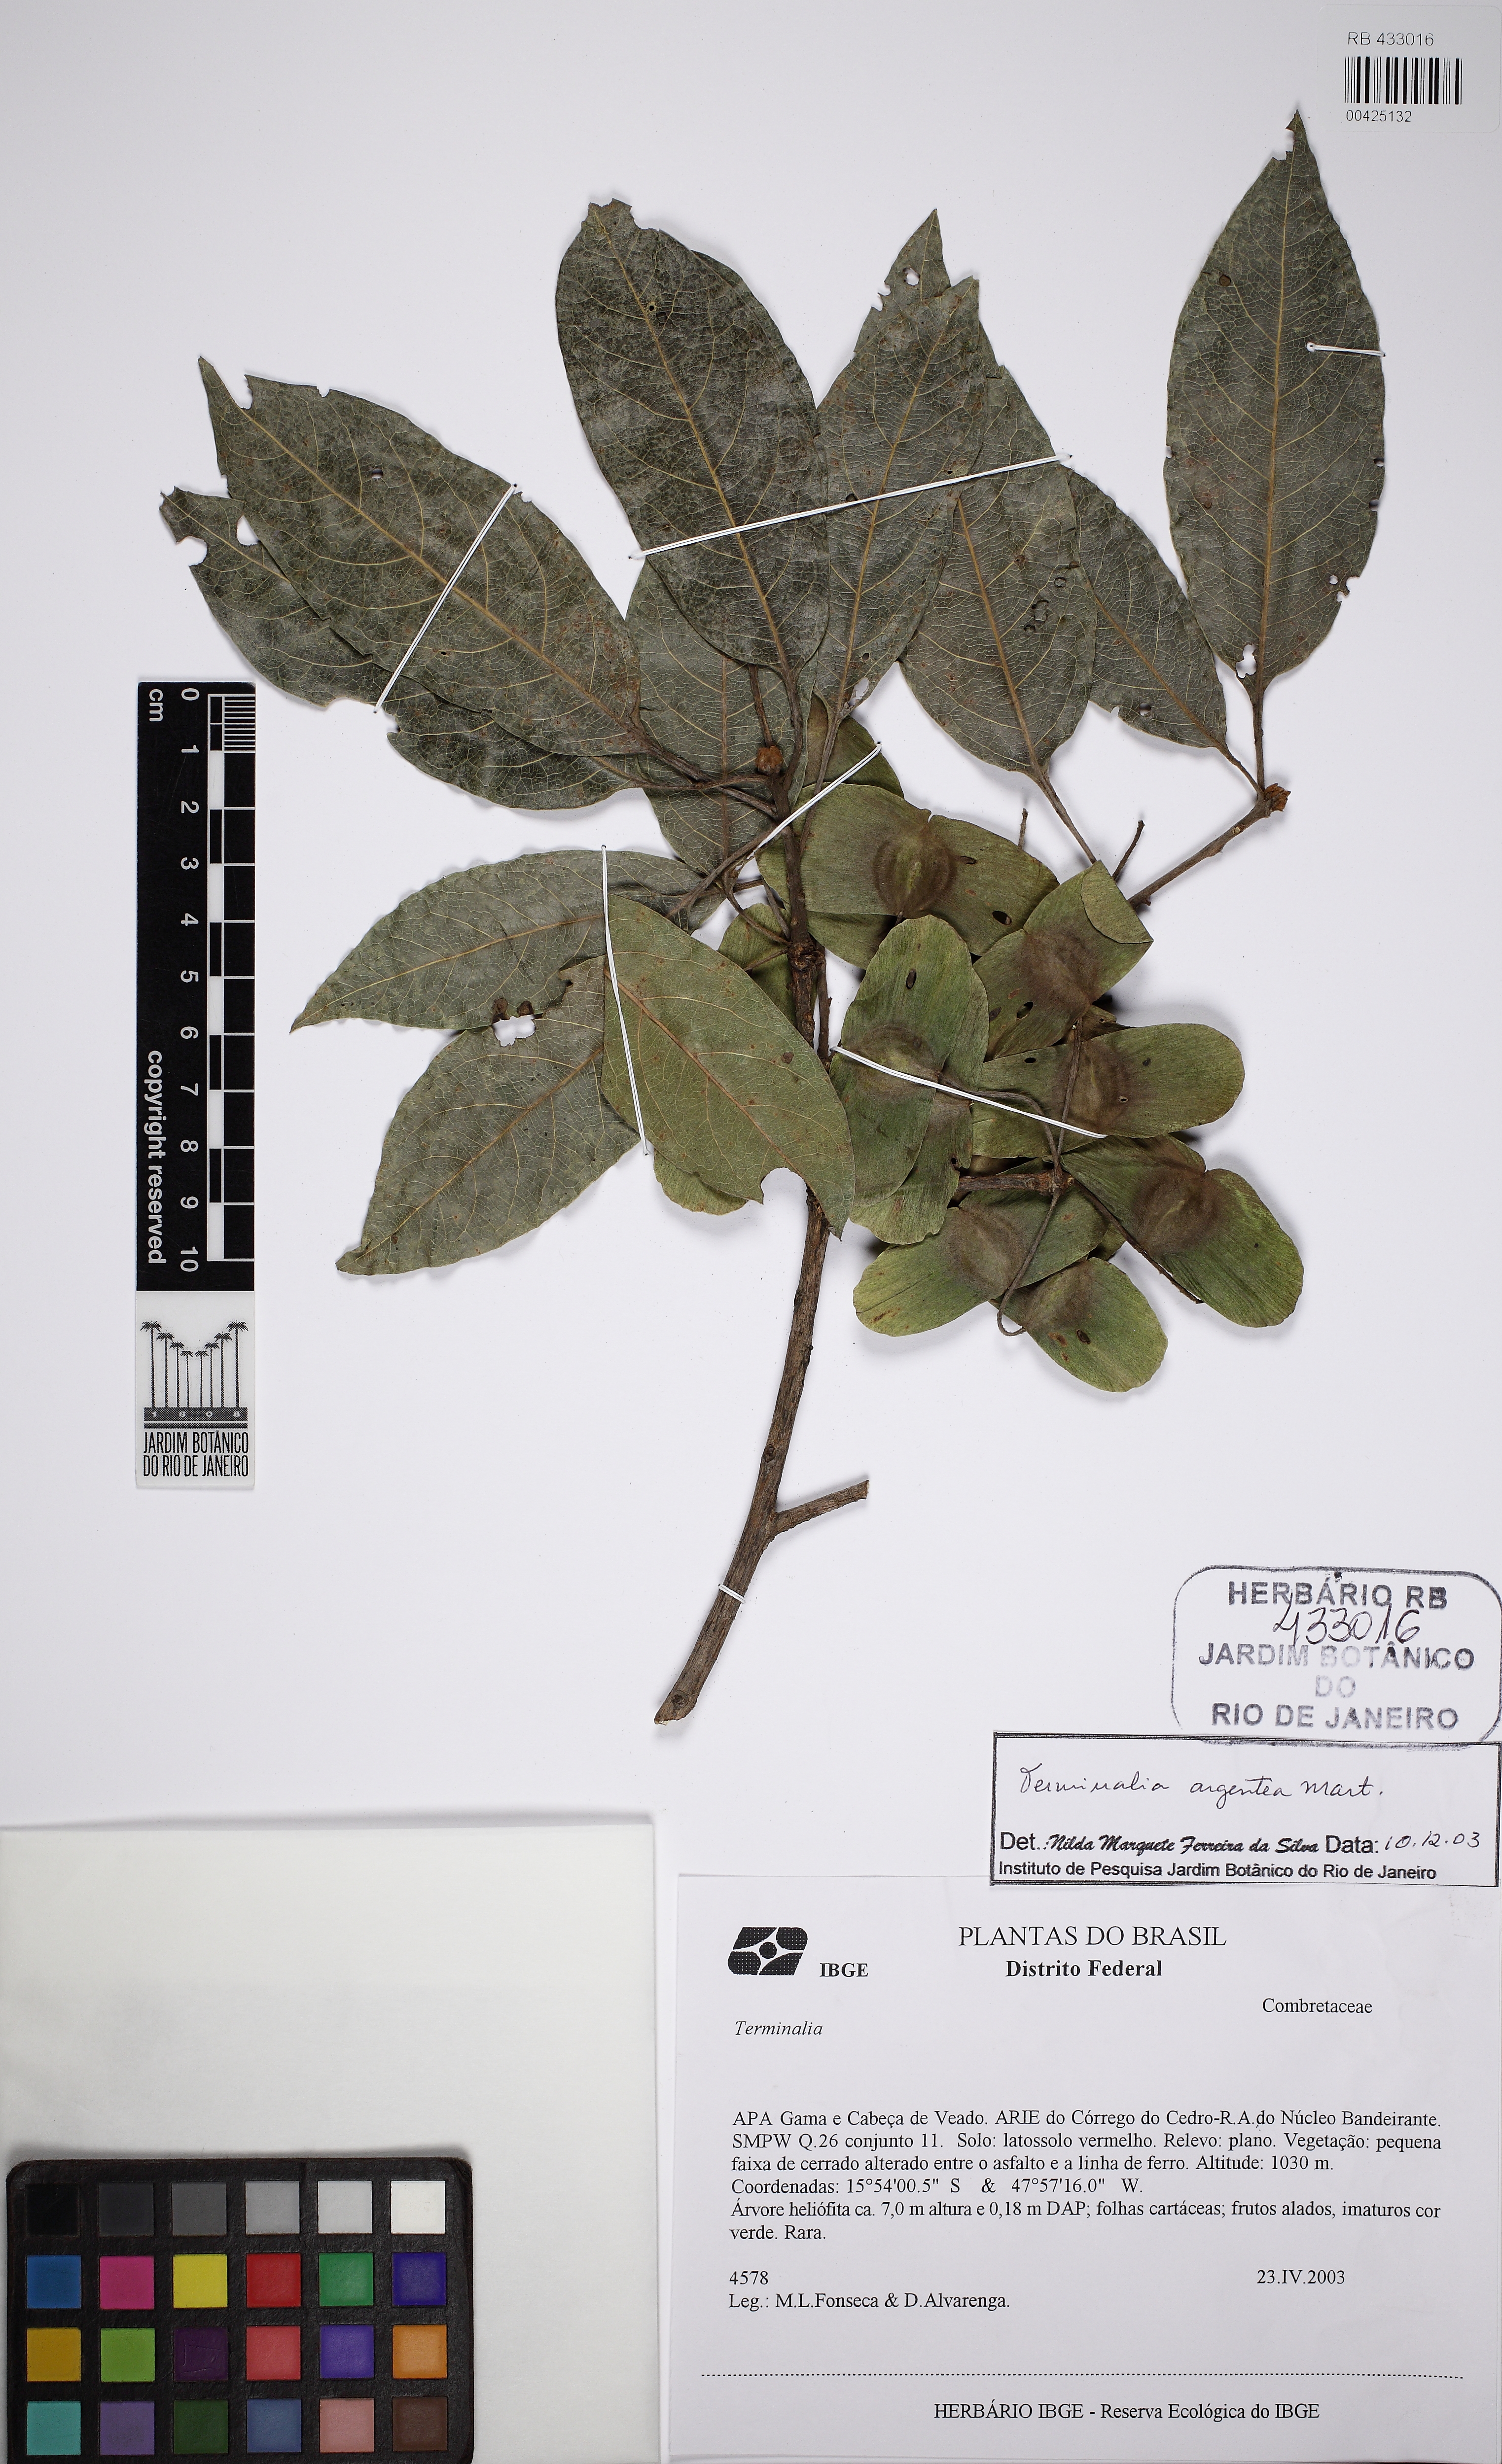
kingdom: Plantae
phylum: Tracheophyta
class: Magnoliopsida
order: Myrtales
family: Combretaceae
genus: Terminalia
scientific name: Terminalia argentea
